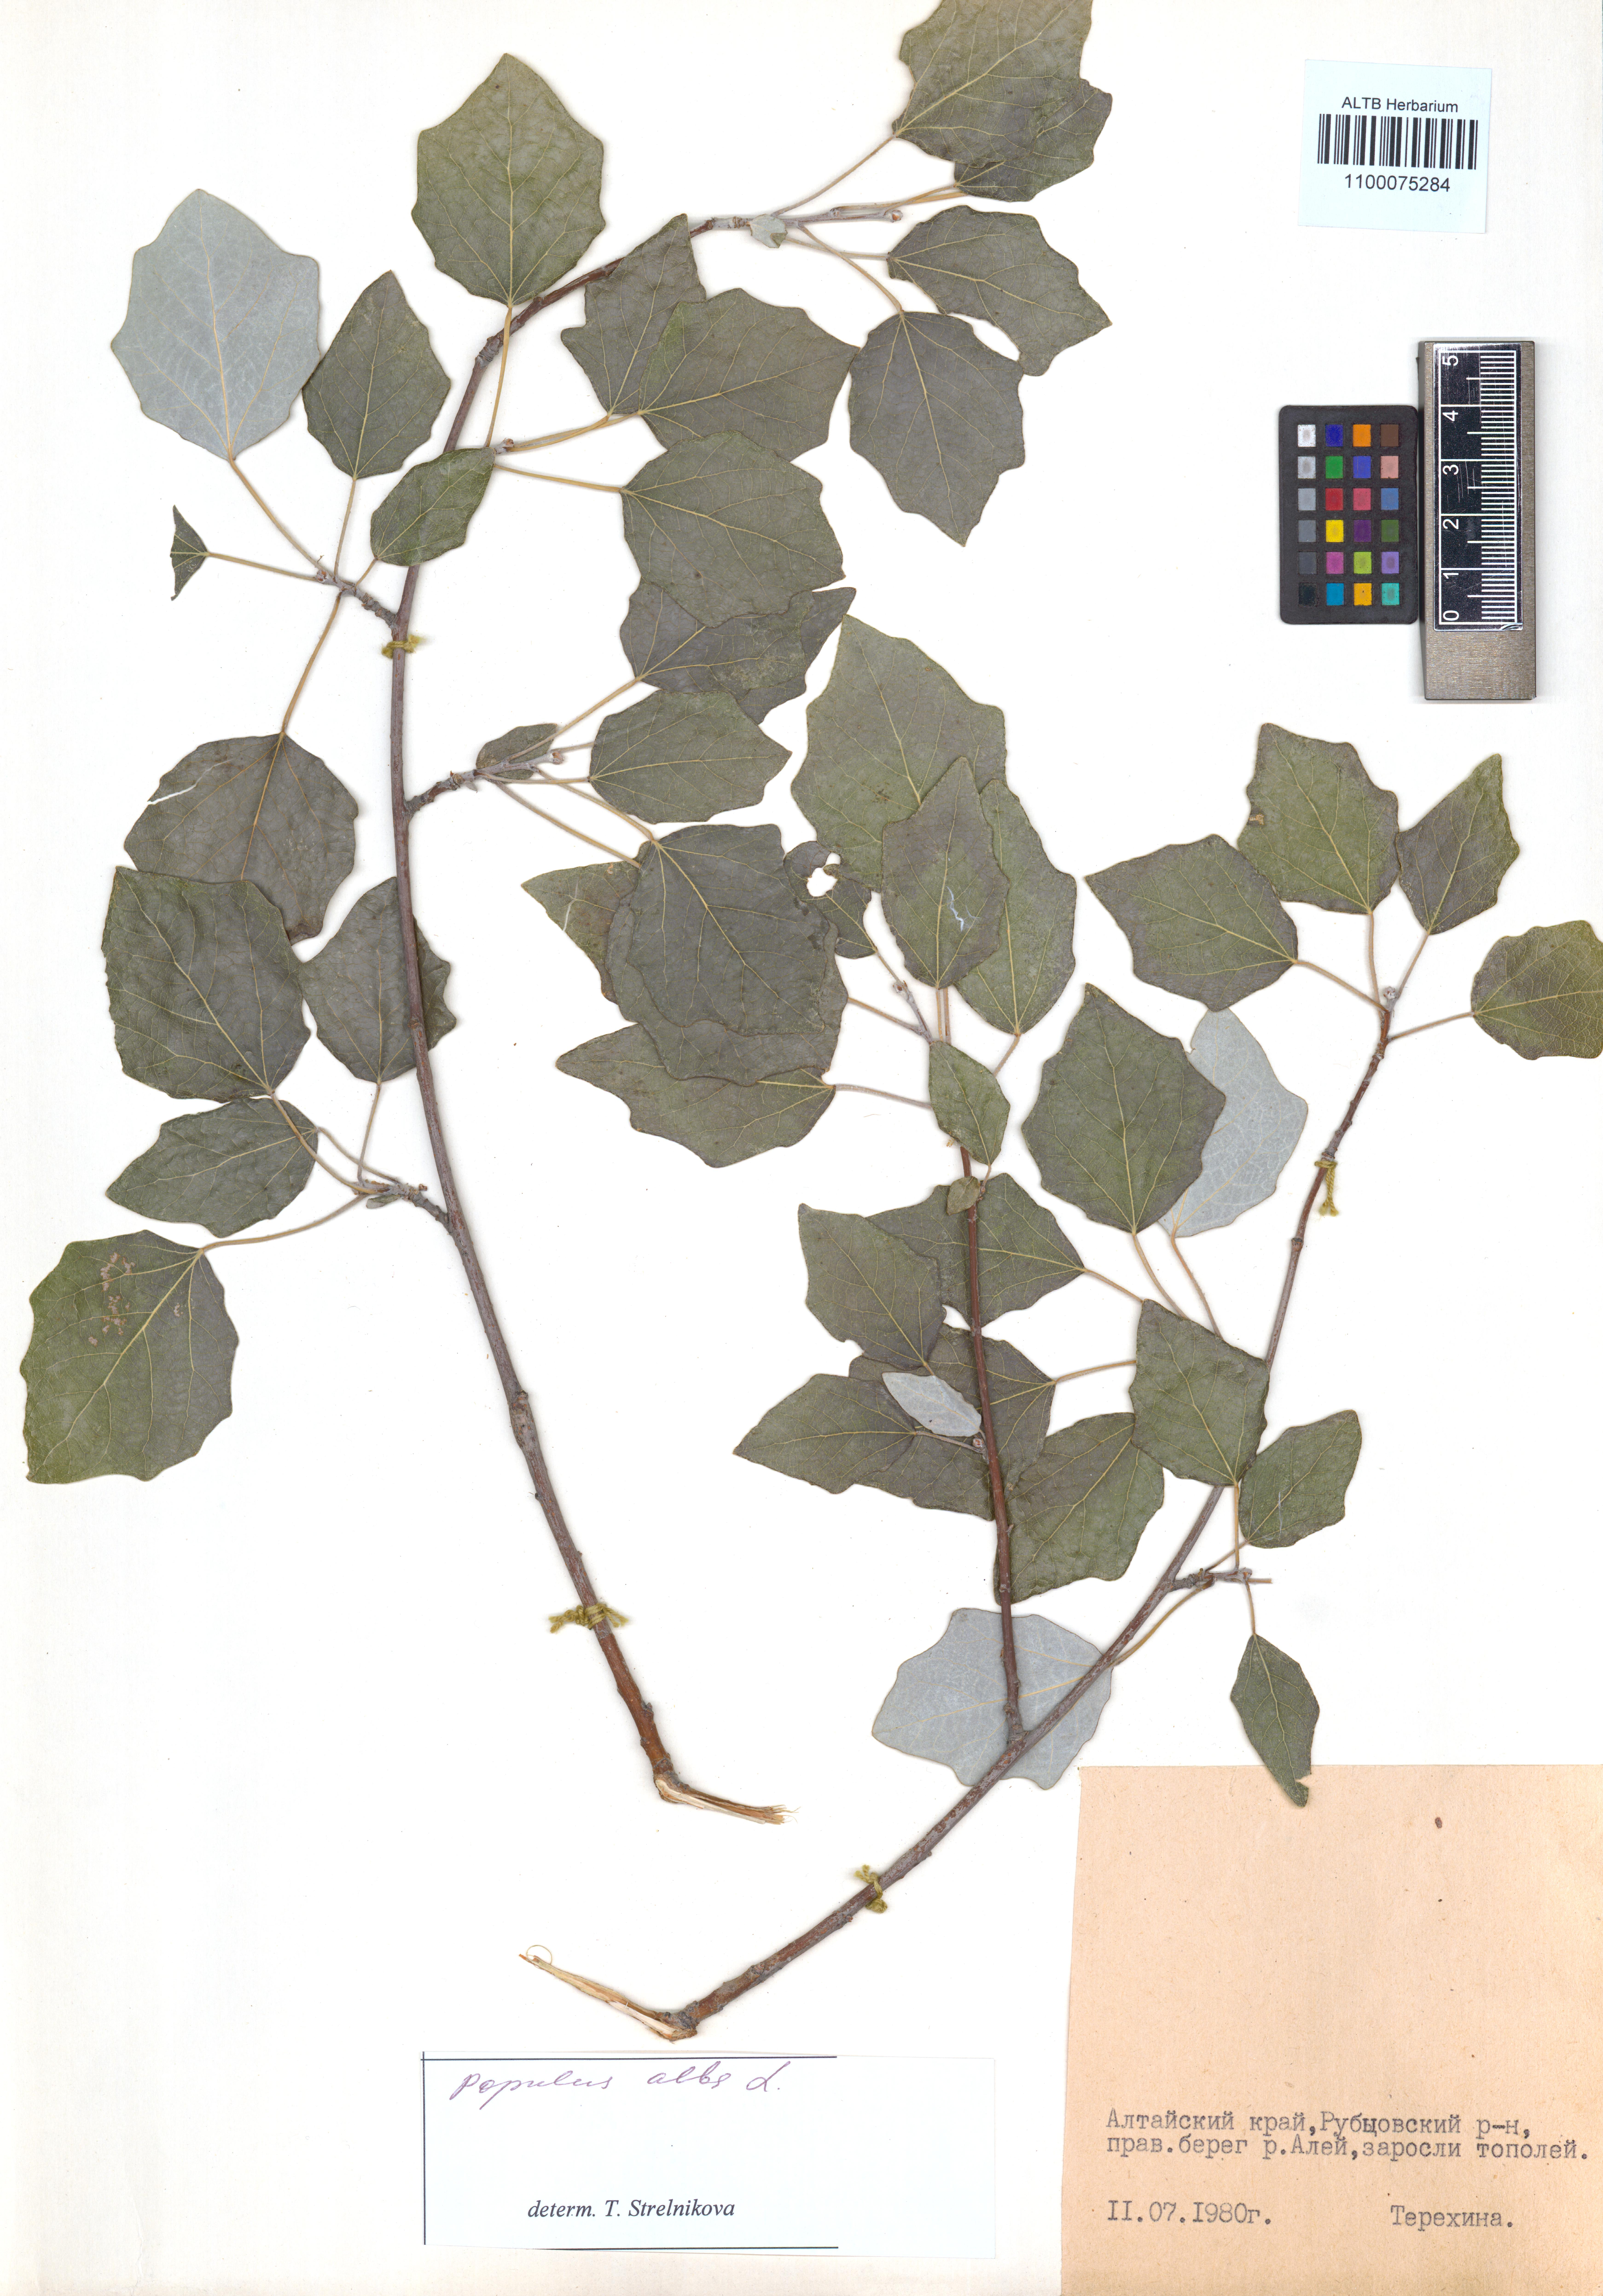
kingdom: Plantae
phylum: Tracheophyta
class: Magnoliopsida
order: Malpighiales
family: Salicaceae
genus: Populus
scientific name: Populus alba
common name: White poplar
